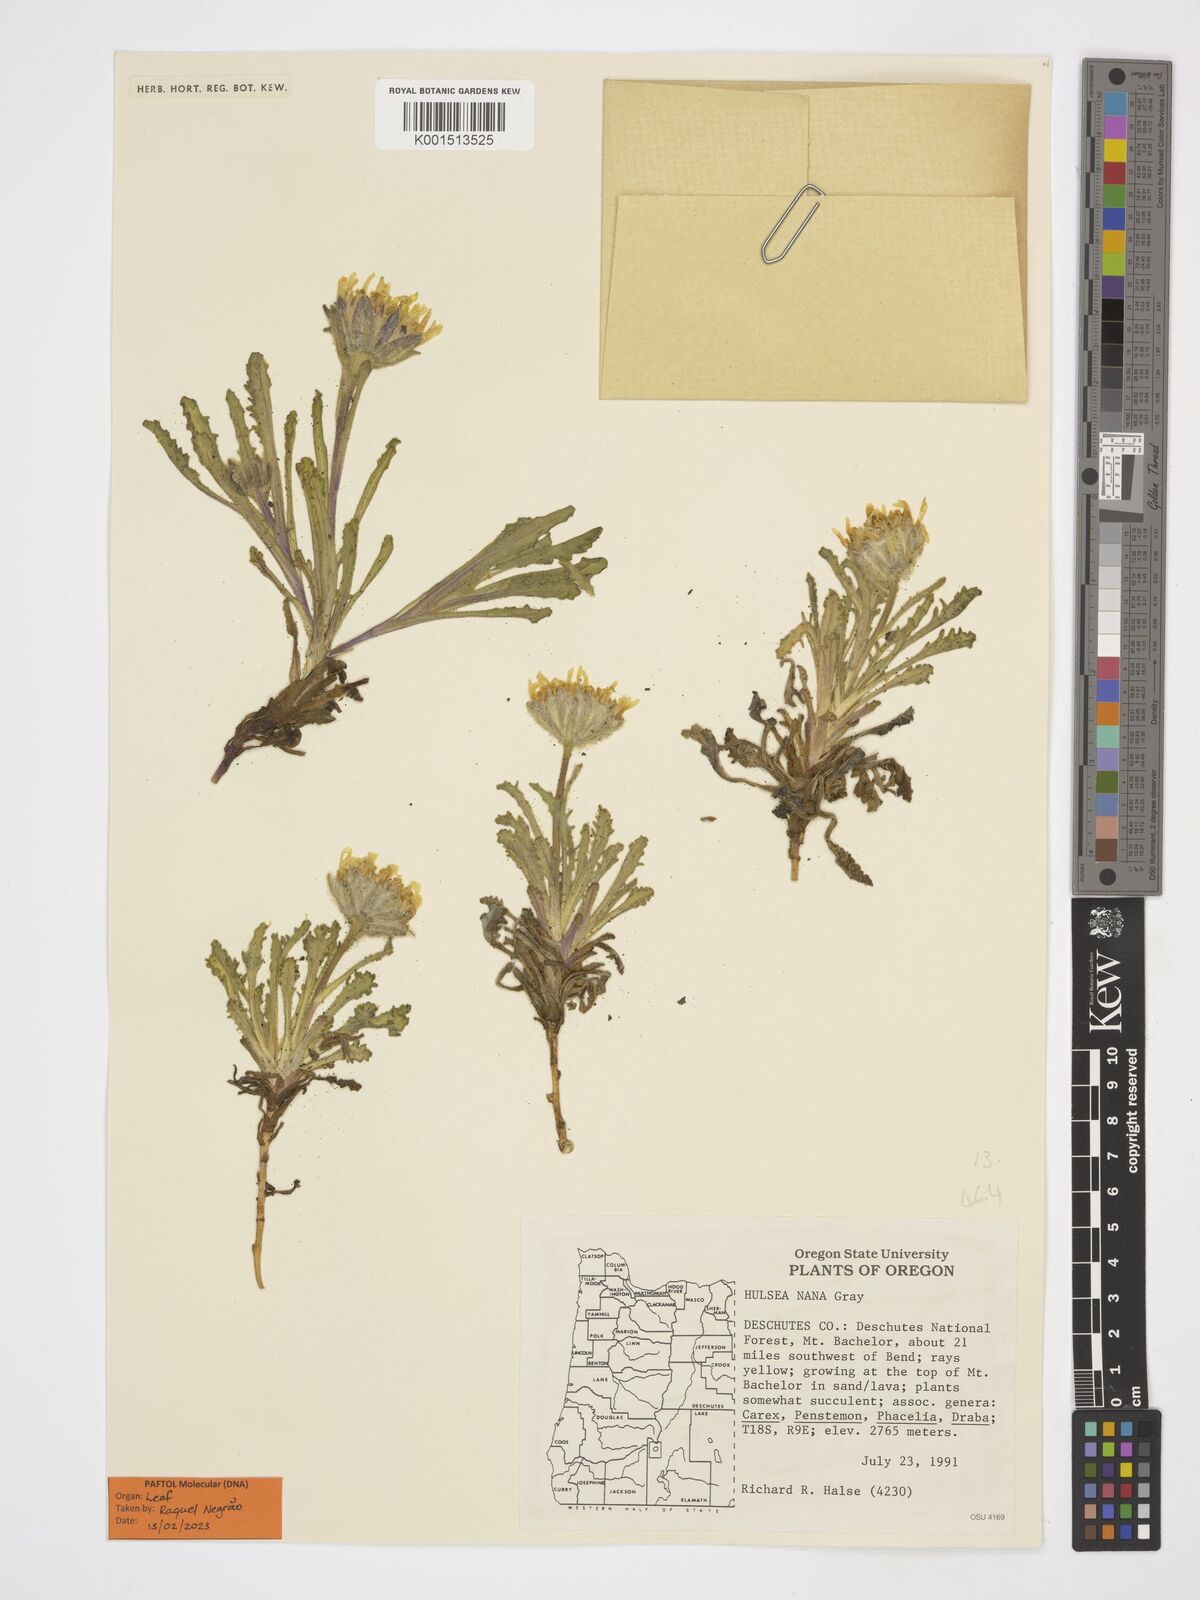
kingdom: Plantae
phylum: Tracheophyta
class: Magnoliopsida
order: Asterales
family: Asteraceae
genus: Hulsea
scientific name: Hulsea nana
